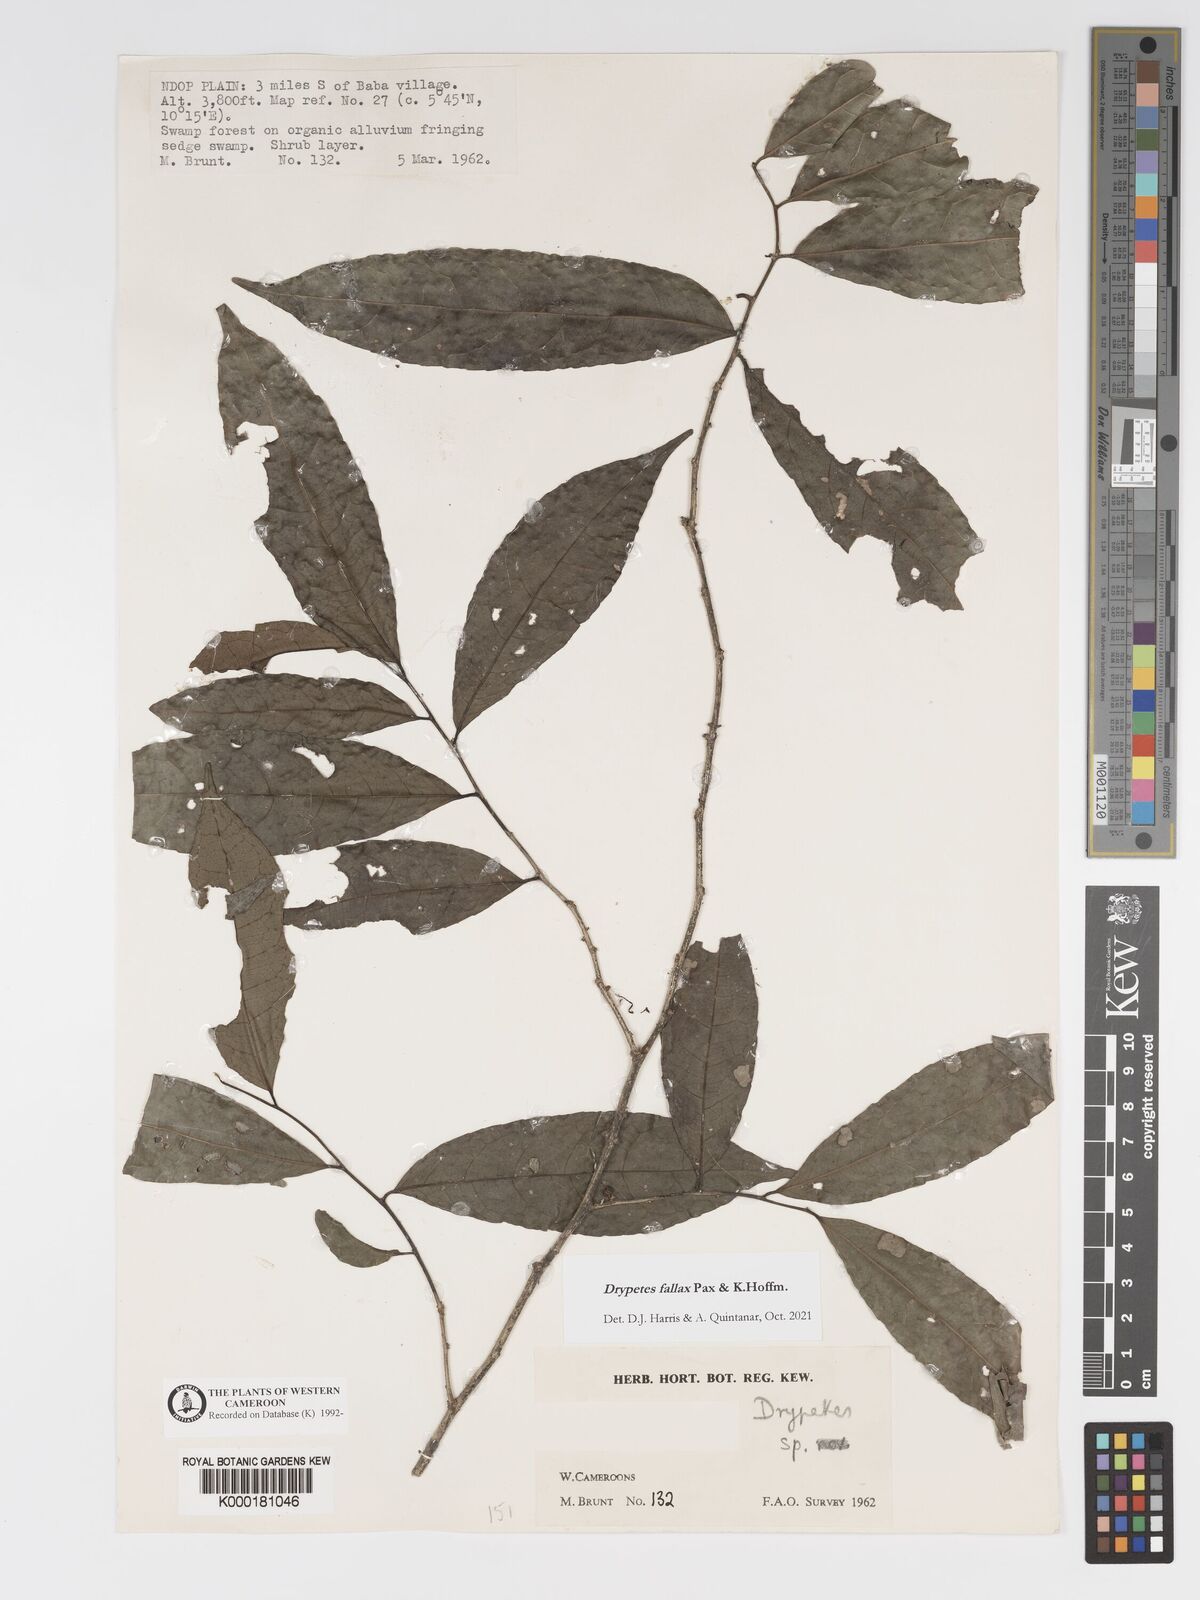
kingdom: Plantae
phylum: Tracheophyta
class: Magnoliopsida
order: Malpighiales
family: Putranjivaceae
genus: Drypetes
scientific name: Drypetes
